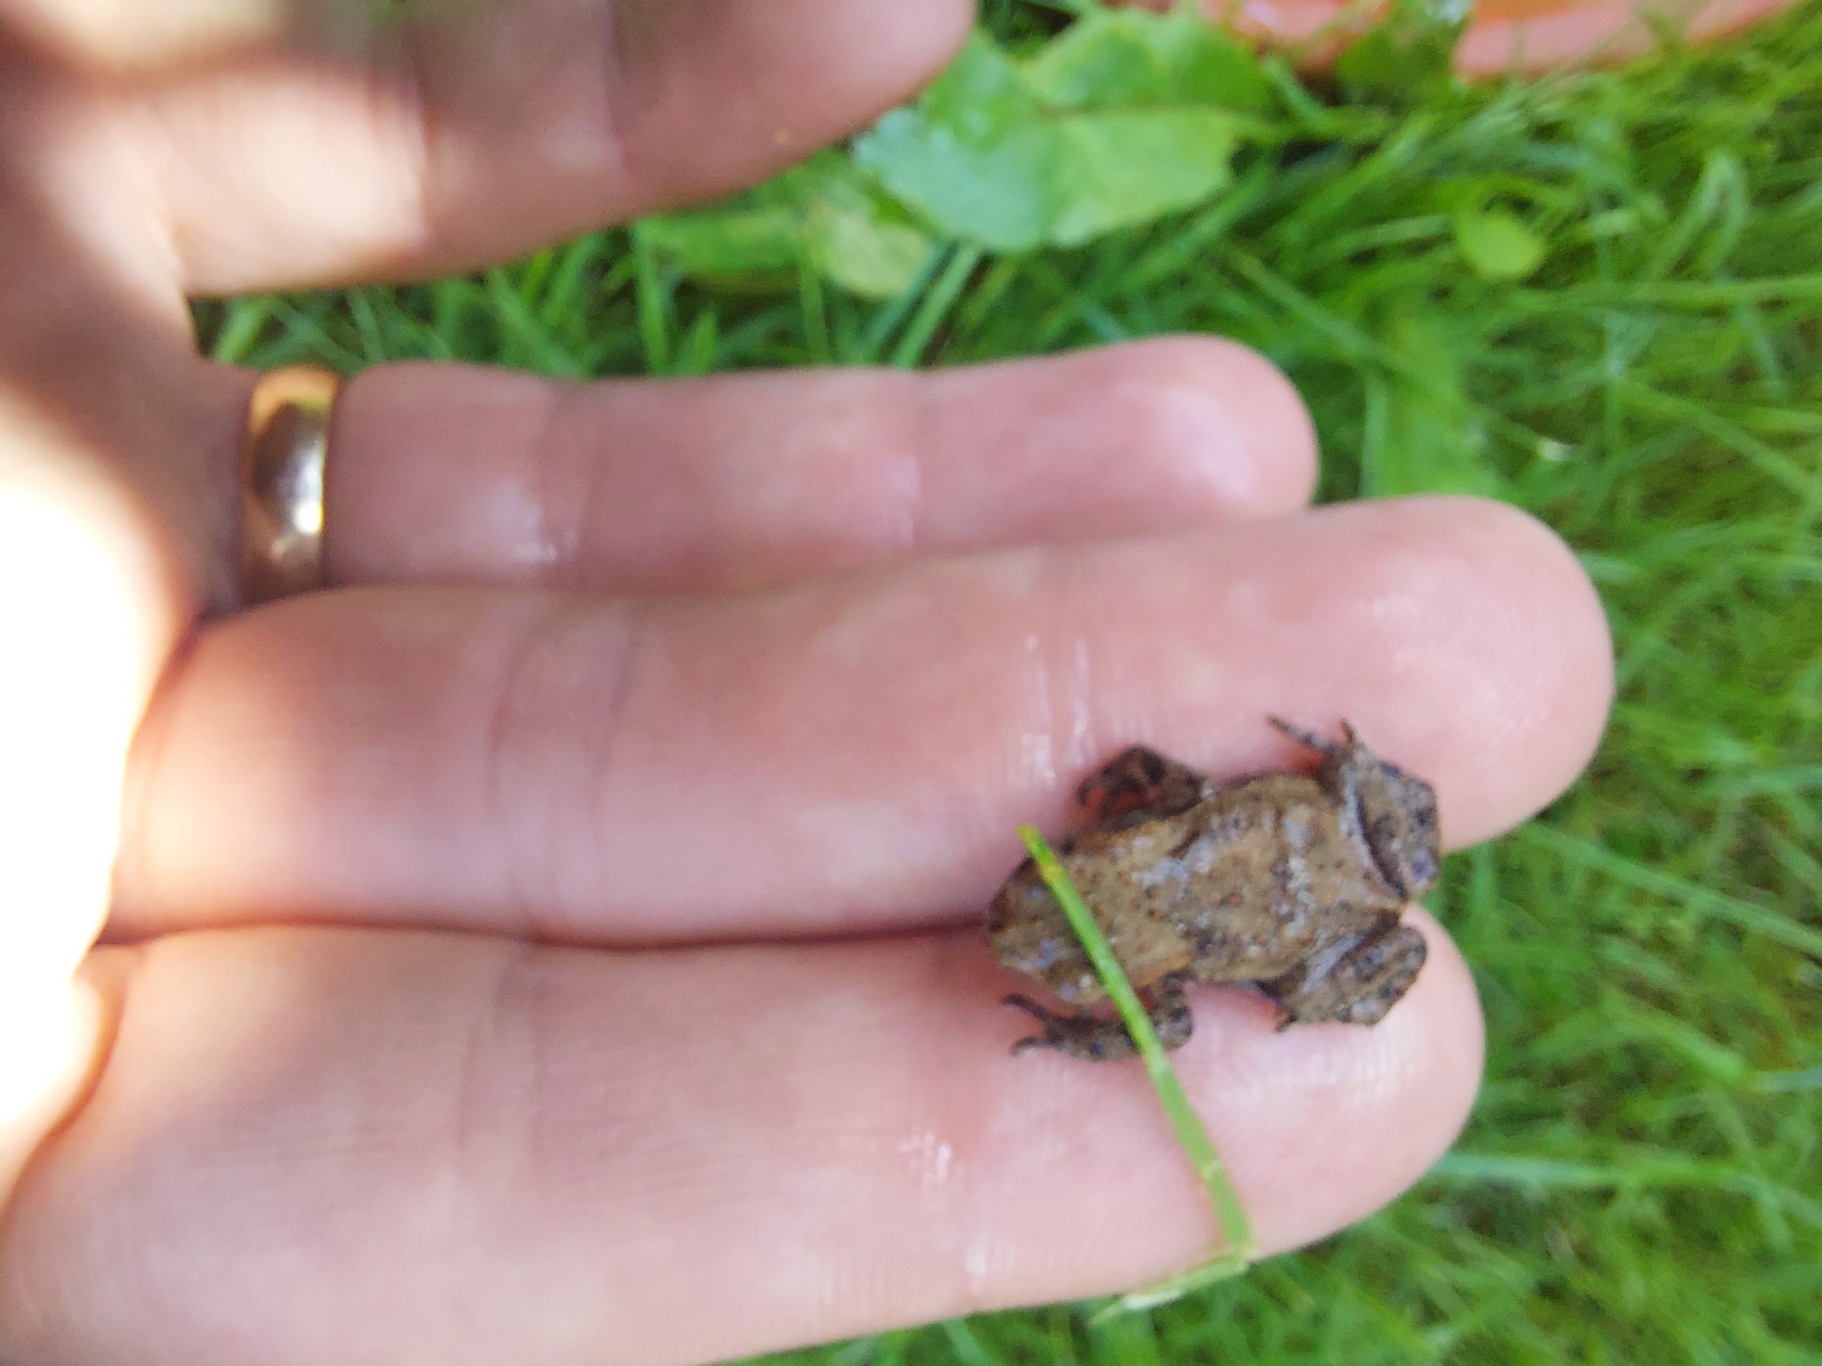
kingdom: Animalia
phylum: Chordata
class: Amphibia
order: Anura
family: Bufonidae
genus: Bufo
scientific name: Bufo bufo
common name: Skrubtudse
